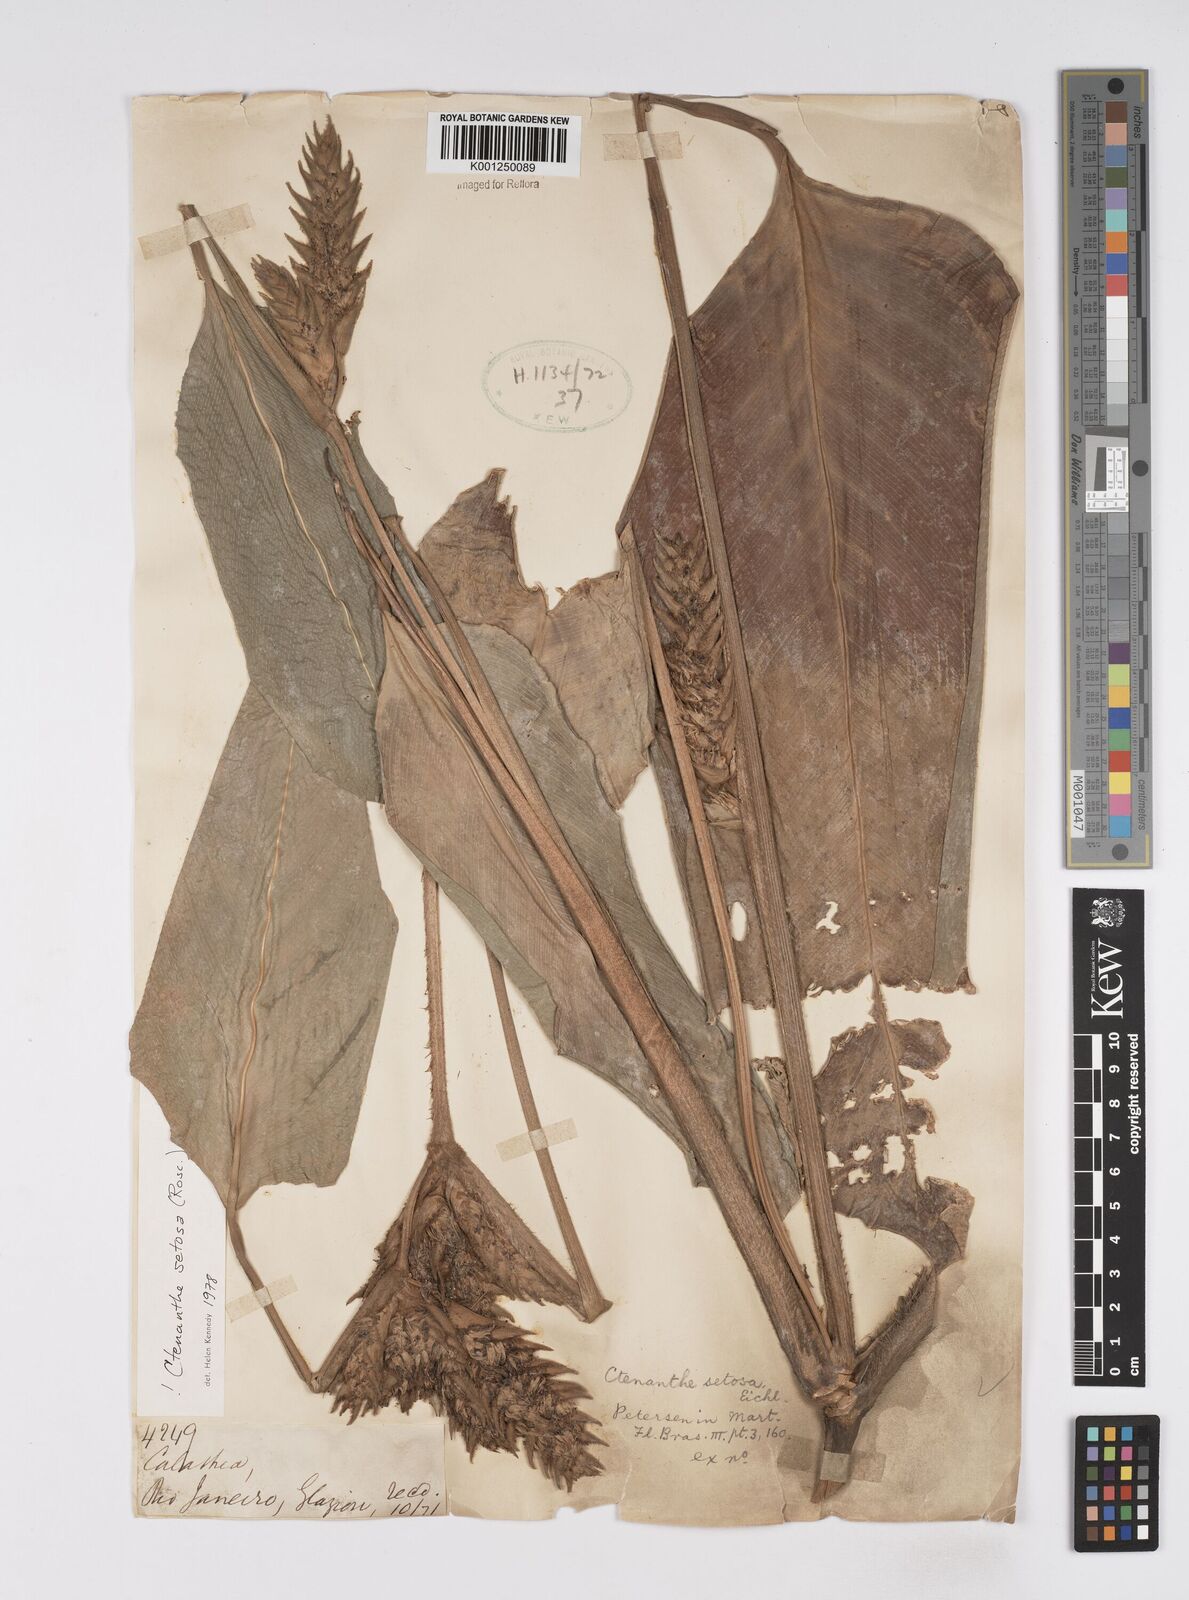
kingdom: Plantae
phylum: Tracheophyta
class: Liliopsida
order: Zingiberales
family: Marantaceae
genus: Ctenanthe
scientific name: Ctenanthe
